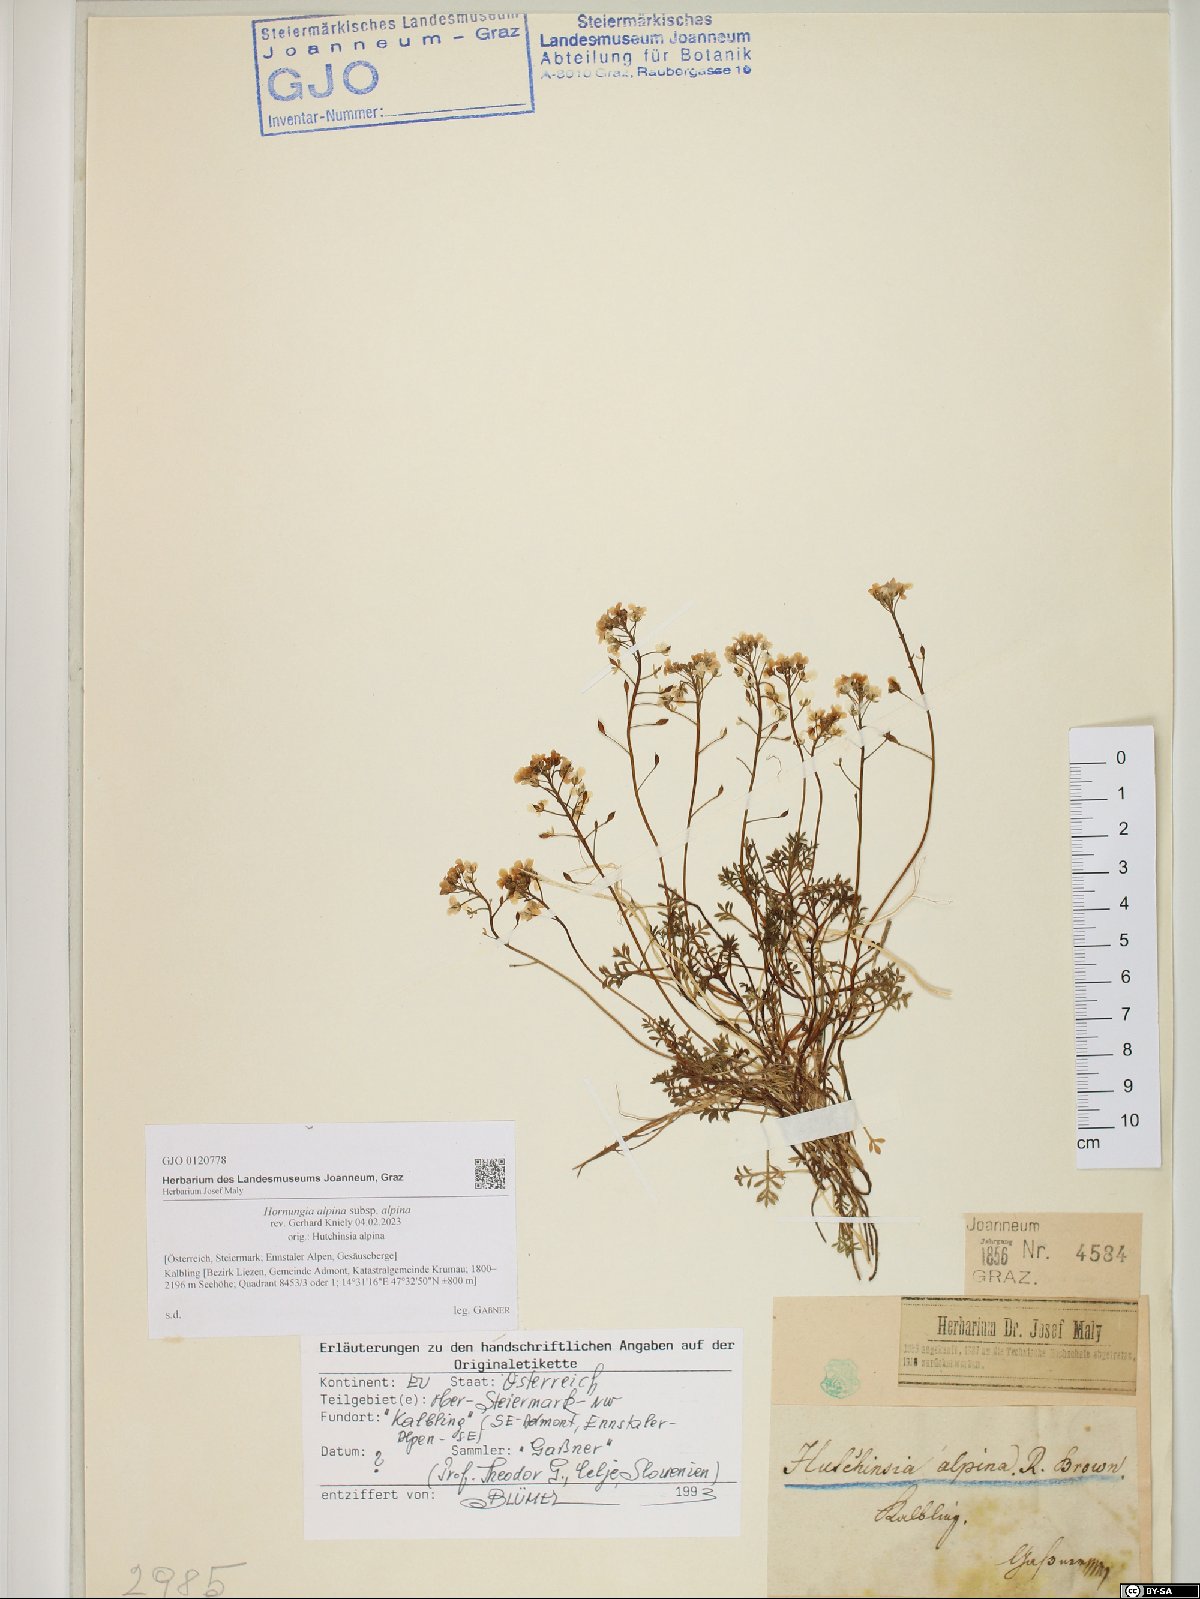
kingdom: Plantae
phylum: Tracheophyta
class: Magnoliopsida
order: Brassicales
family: Brassicaceae
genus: Hornungia
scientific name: Hornungia alpina
